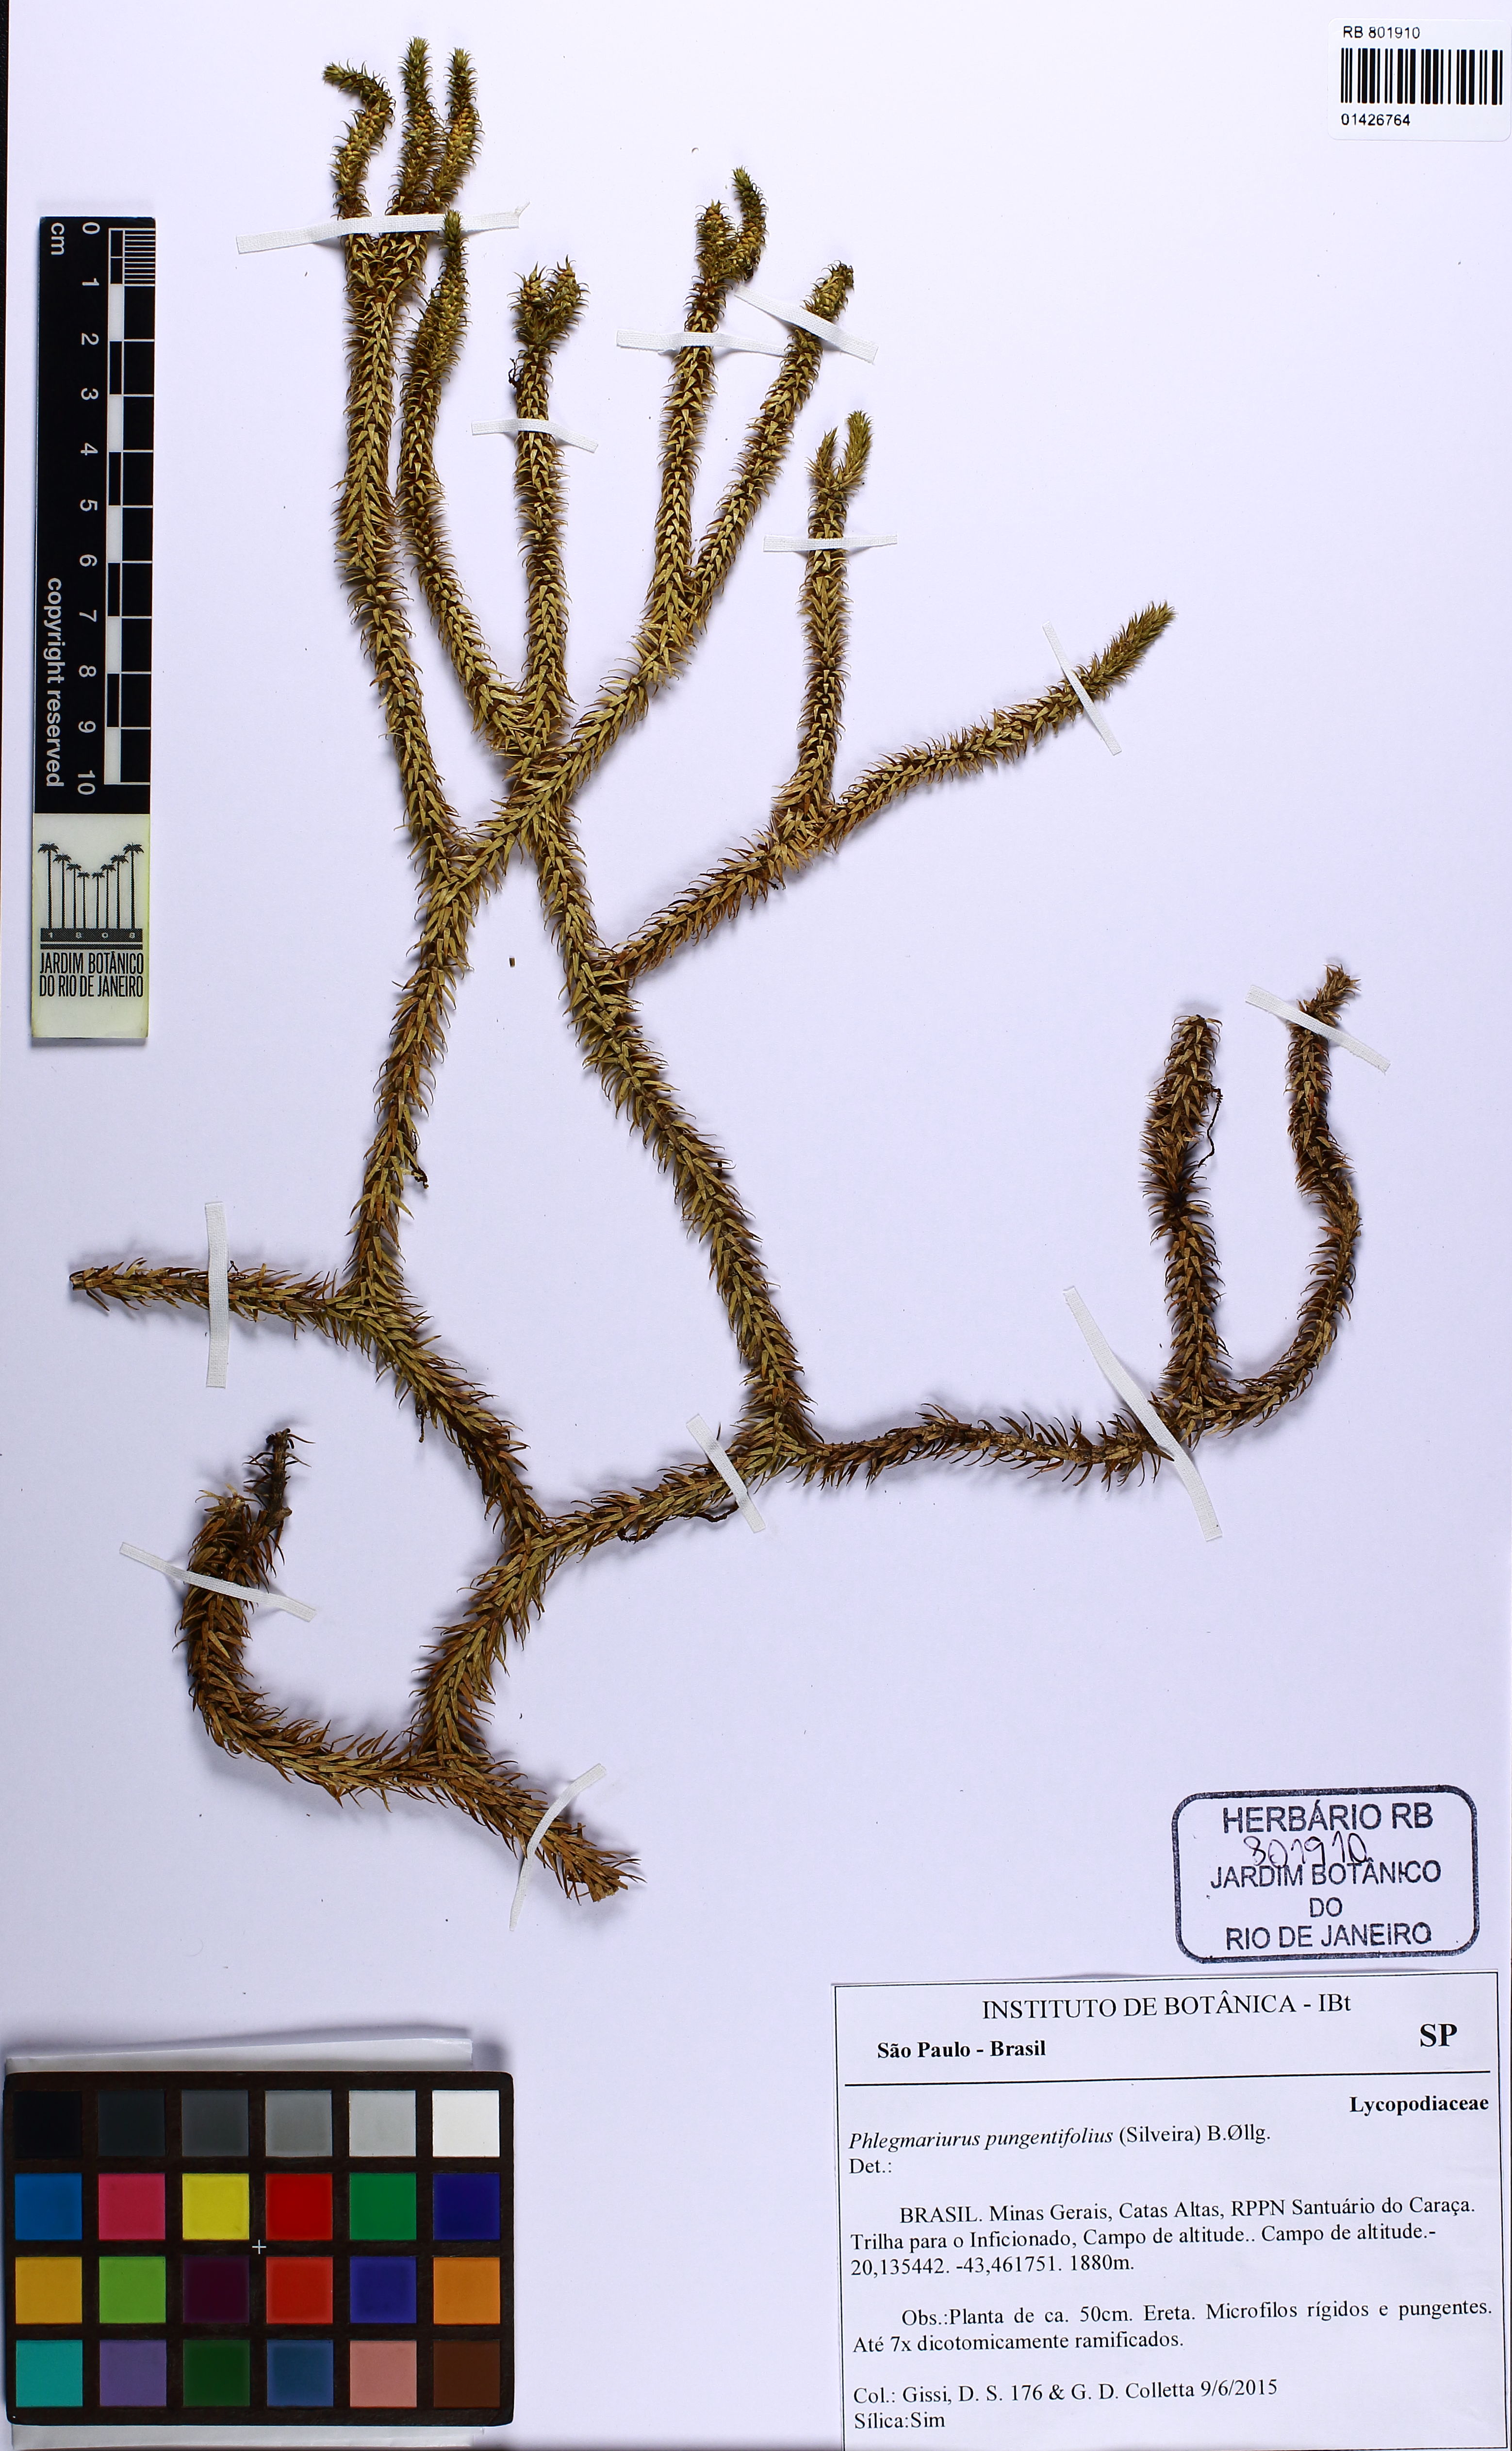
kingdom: Plantae
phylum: Tracheophyta
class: Lycopodiopsida
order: Lycopodiales
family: Lycopodiaceae
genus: Phlegmariurus
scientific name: Phlegmariurus pungentifolius
